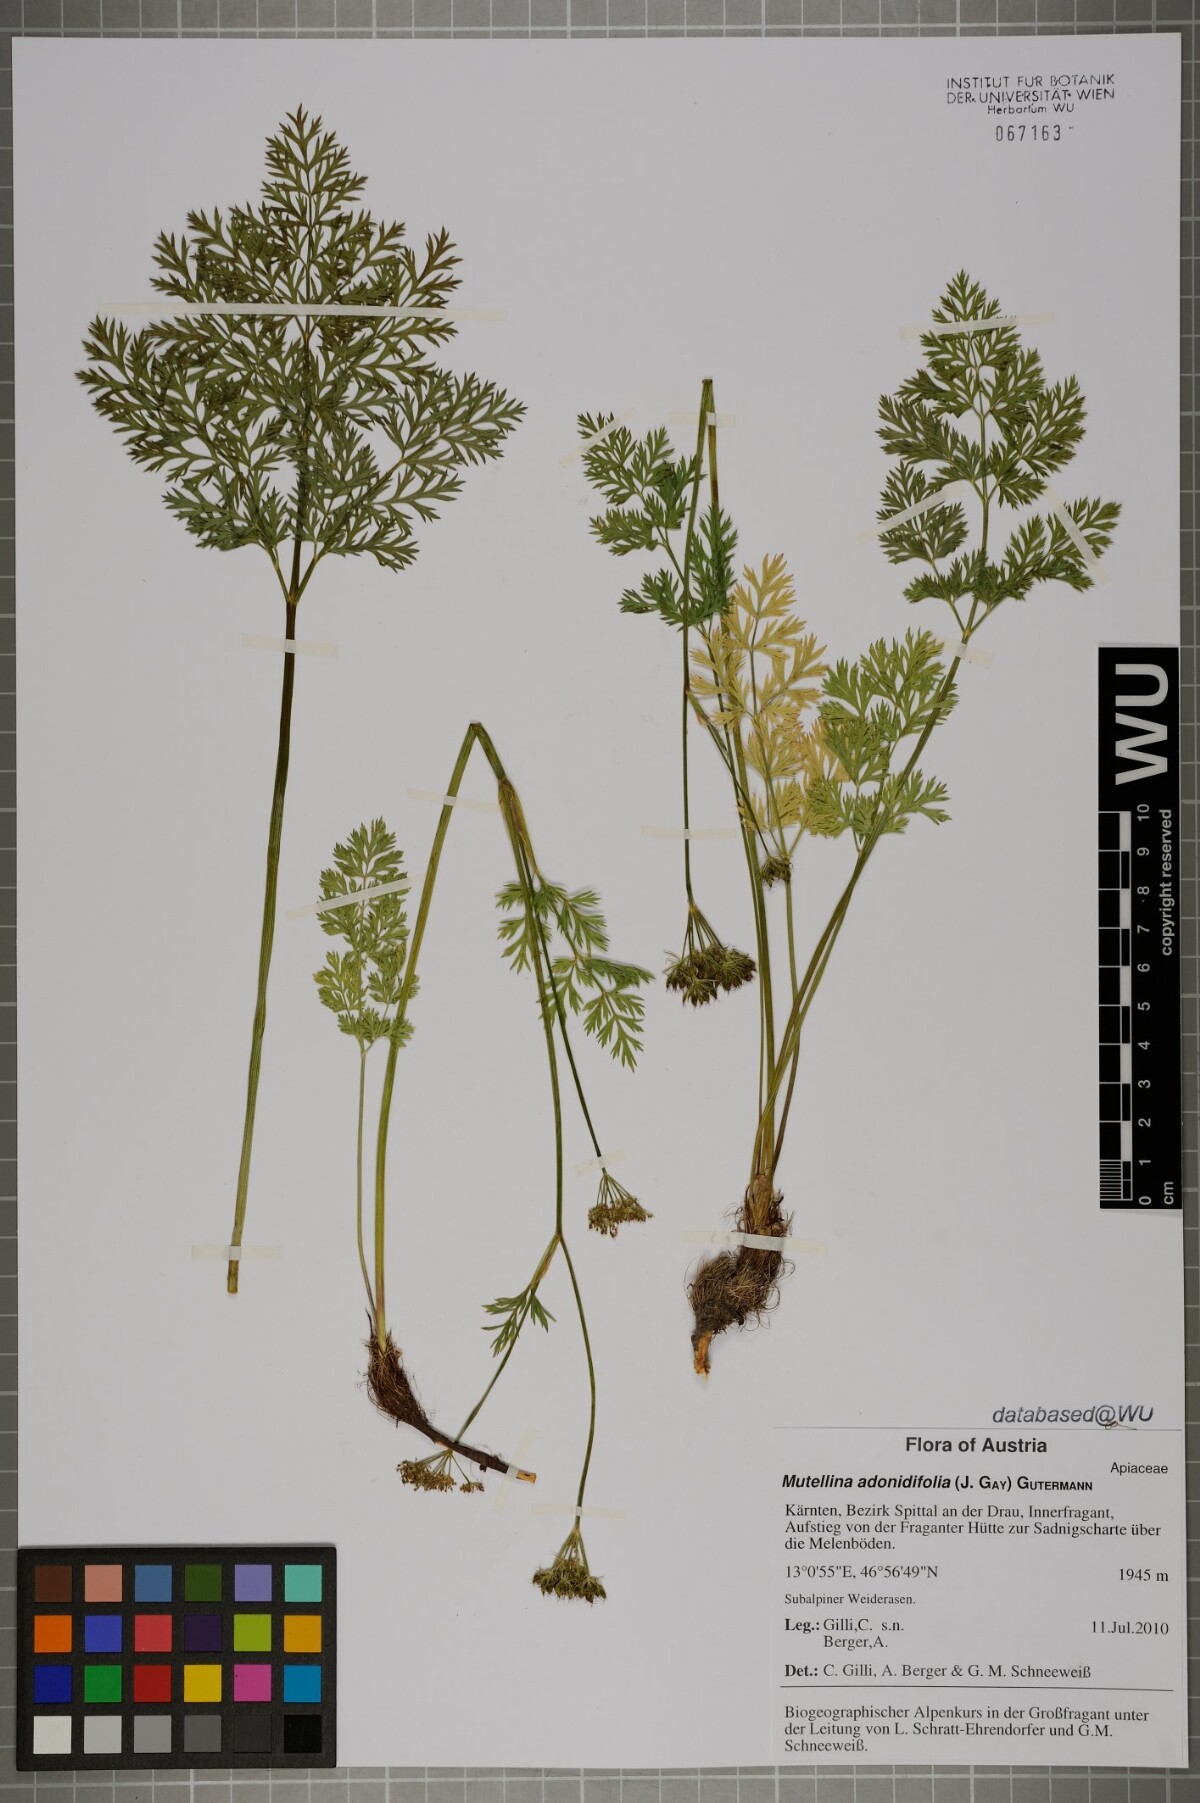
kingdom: Plantae
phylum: Tracheophyta
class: Magnoliopsida
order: Apiales
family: Apiaceae
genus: Mutellina
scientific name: Mutellina adonidifolia
